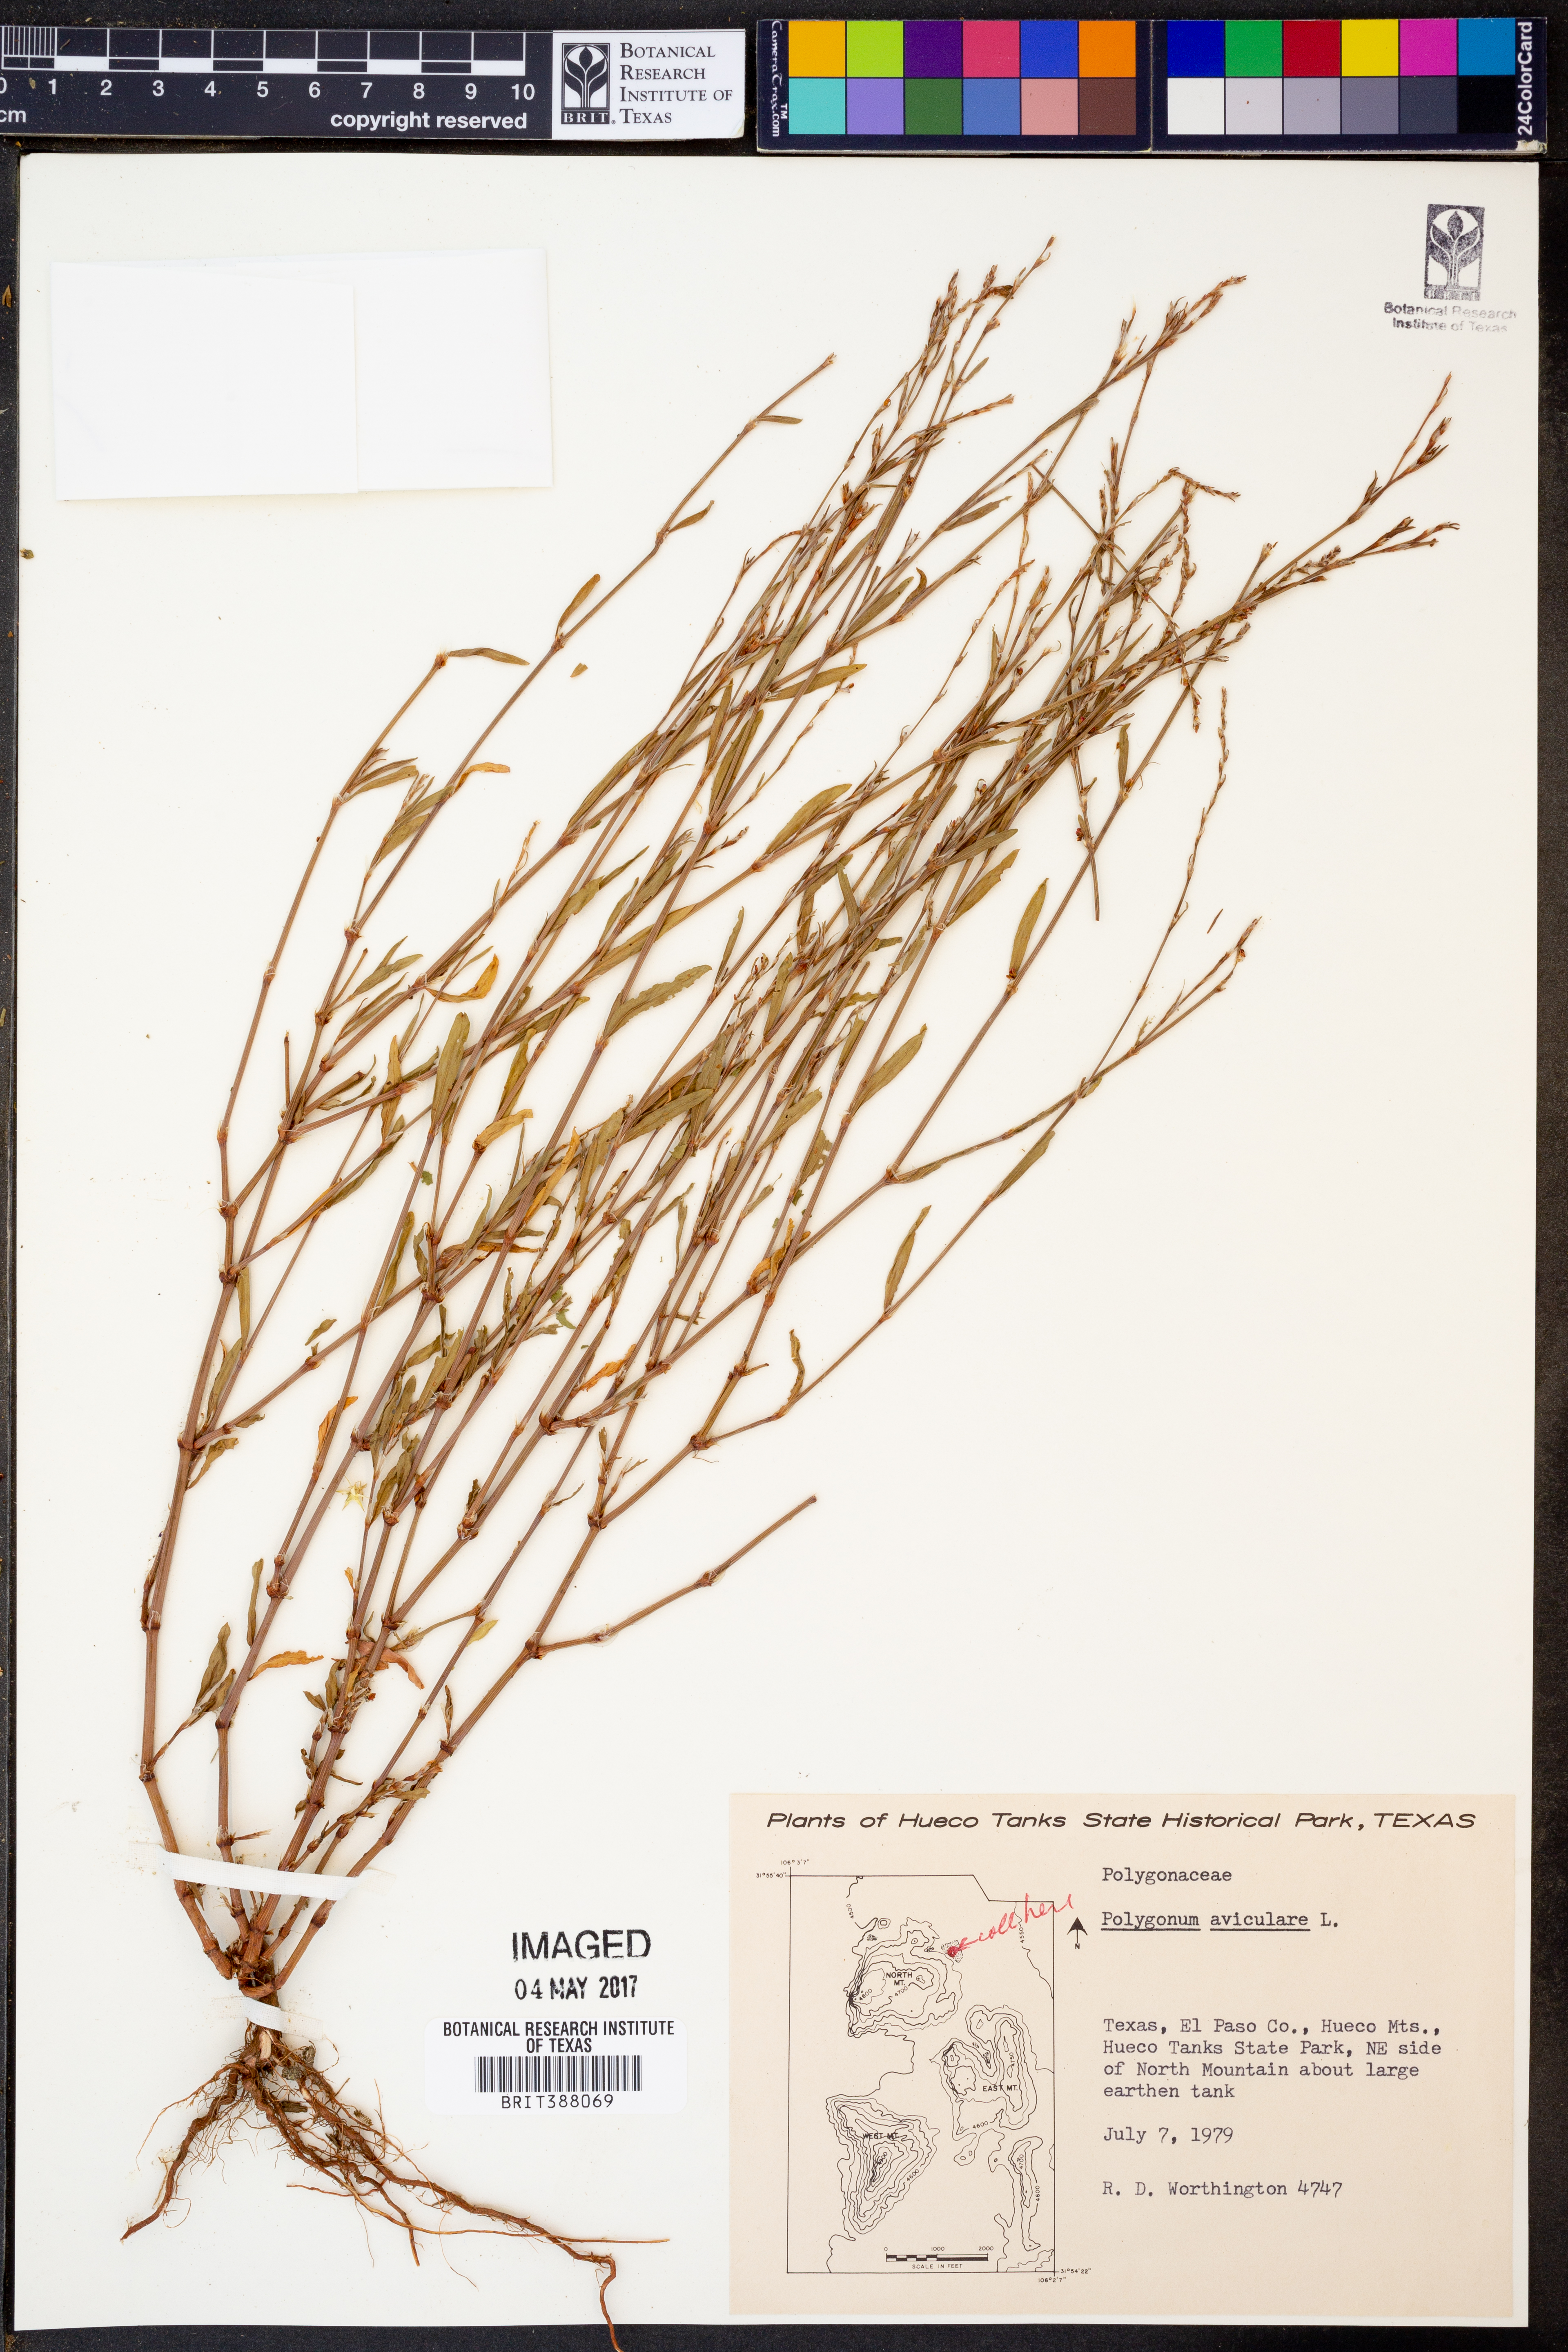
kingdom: Plantae
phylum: Tracheophyta
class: Magnoliopsida
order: Caryophyllales
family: Polygonaceae
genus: Polygonum
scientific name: Polygonum aviculare
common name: Prostrate knotweed
